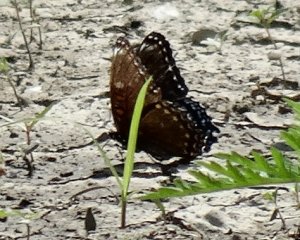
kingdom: Animalia
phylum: Arthropoda
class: Insecta
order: Lepidoptera
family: Nymphalidae
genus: Limenitis
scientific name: Limenitis astyanax
